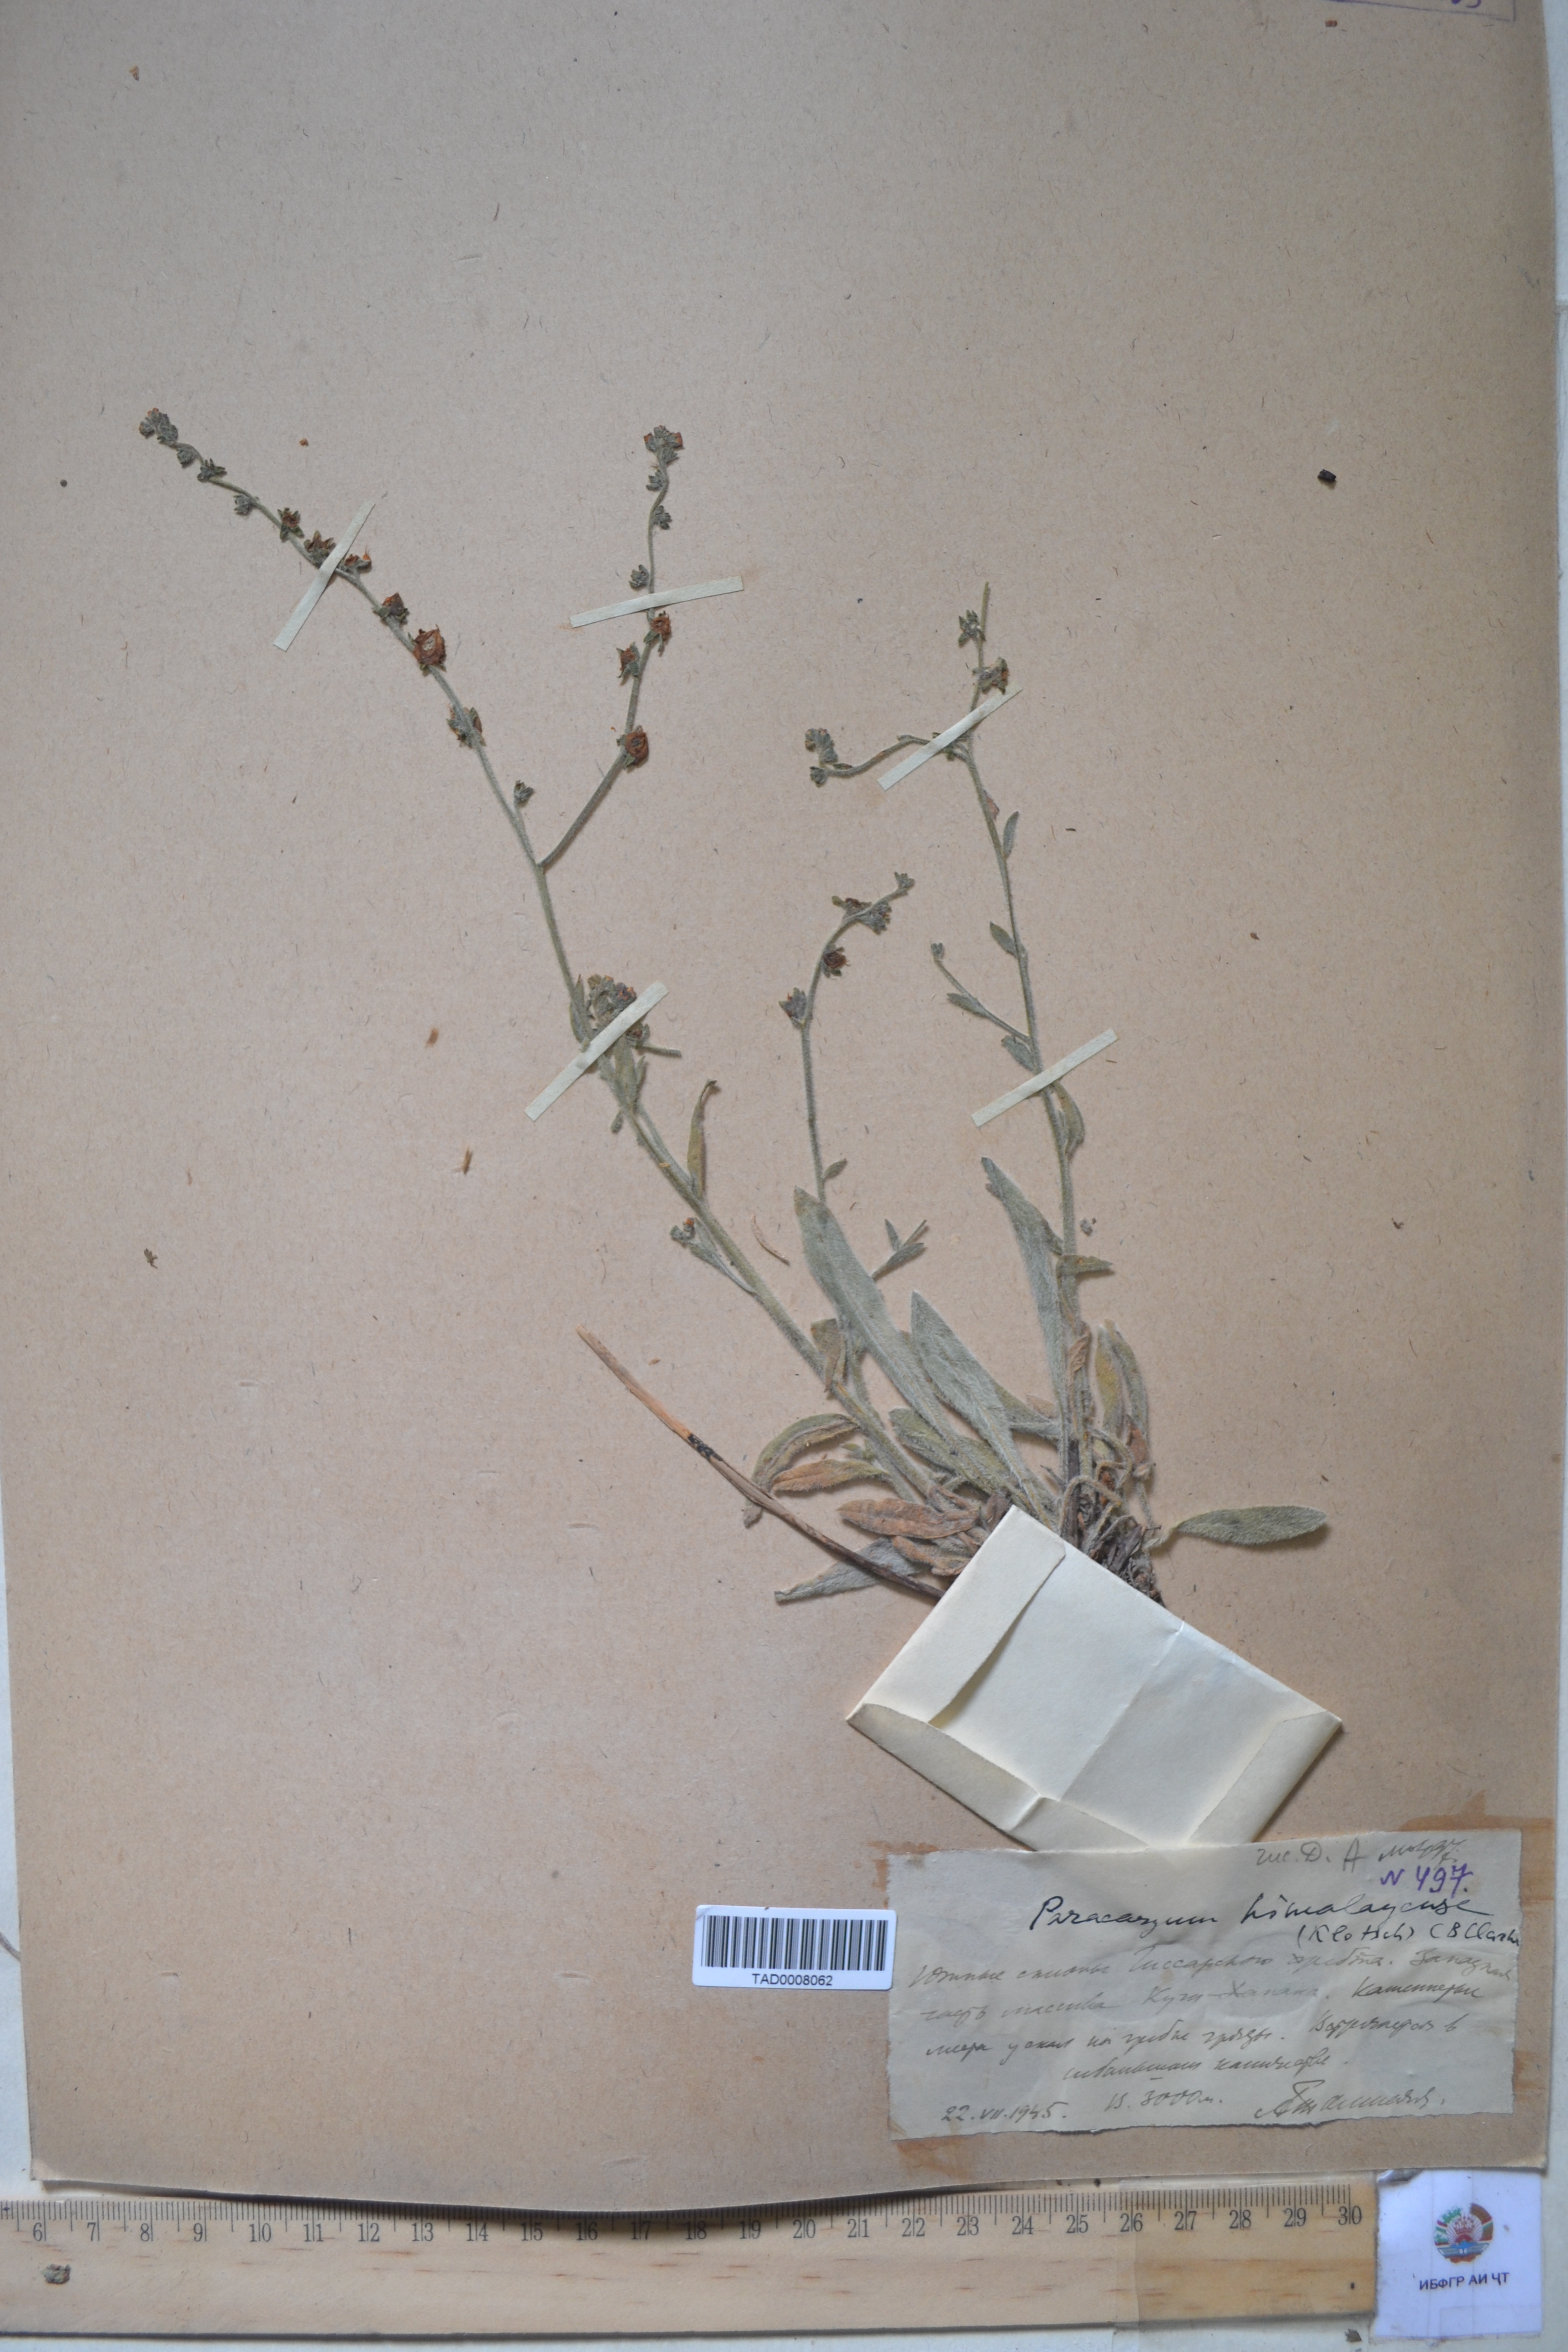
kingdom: Plantae
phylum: Tracheophyta
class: Magnoliopsida
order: Boraginales
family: Boraginaceae
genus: Paracaryum
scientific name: Paracaryum himalayense
